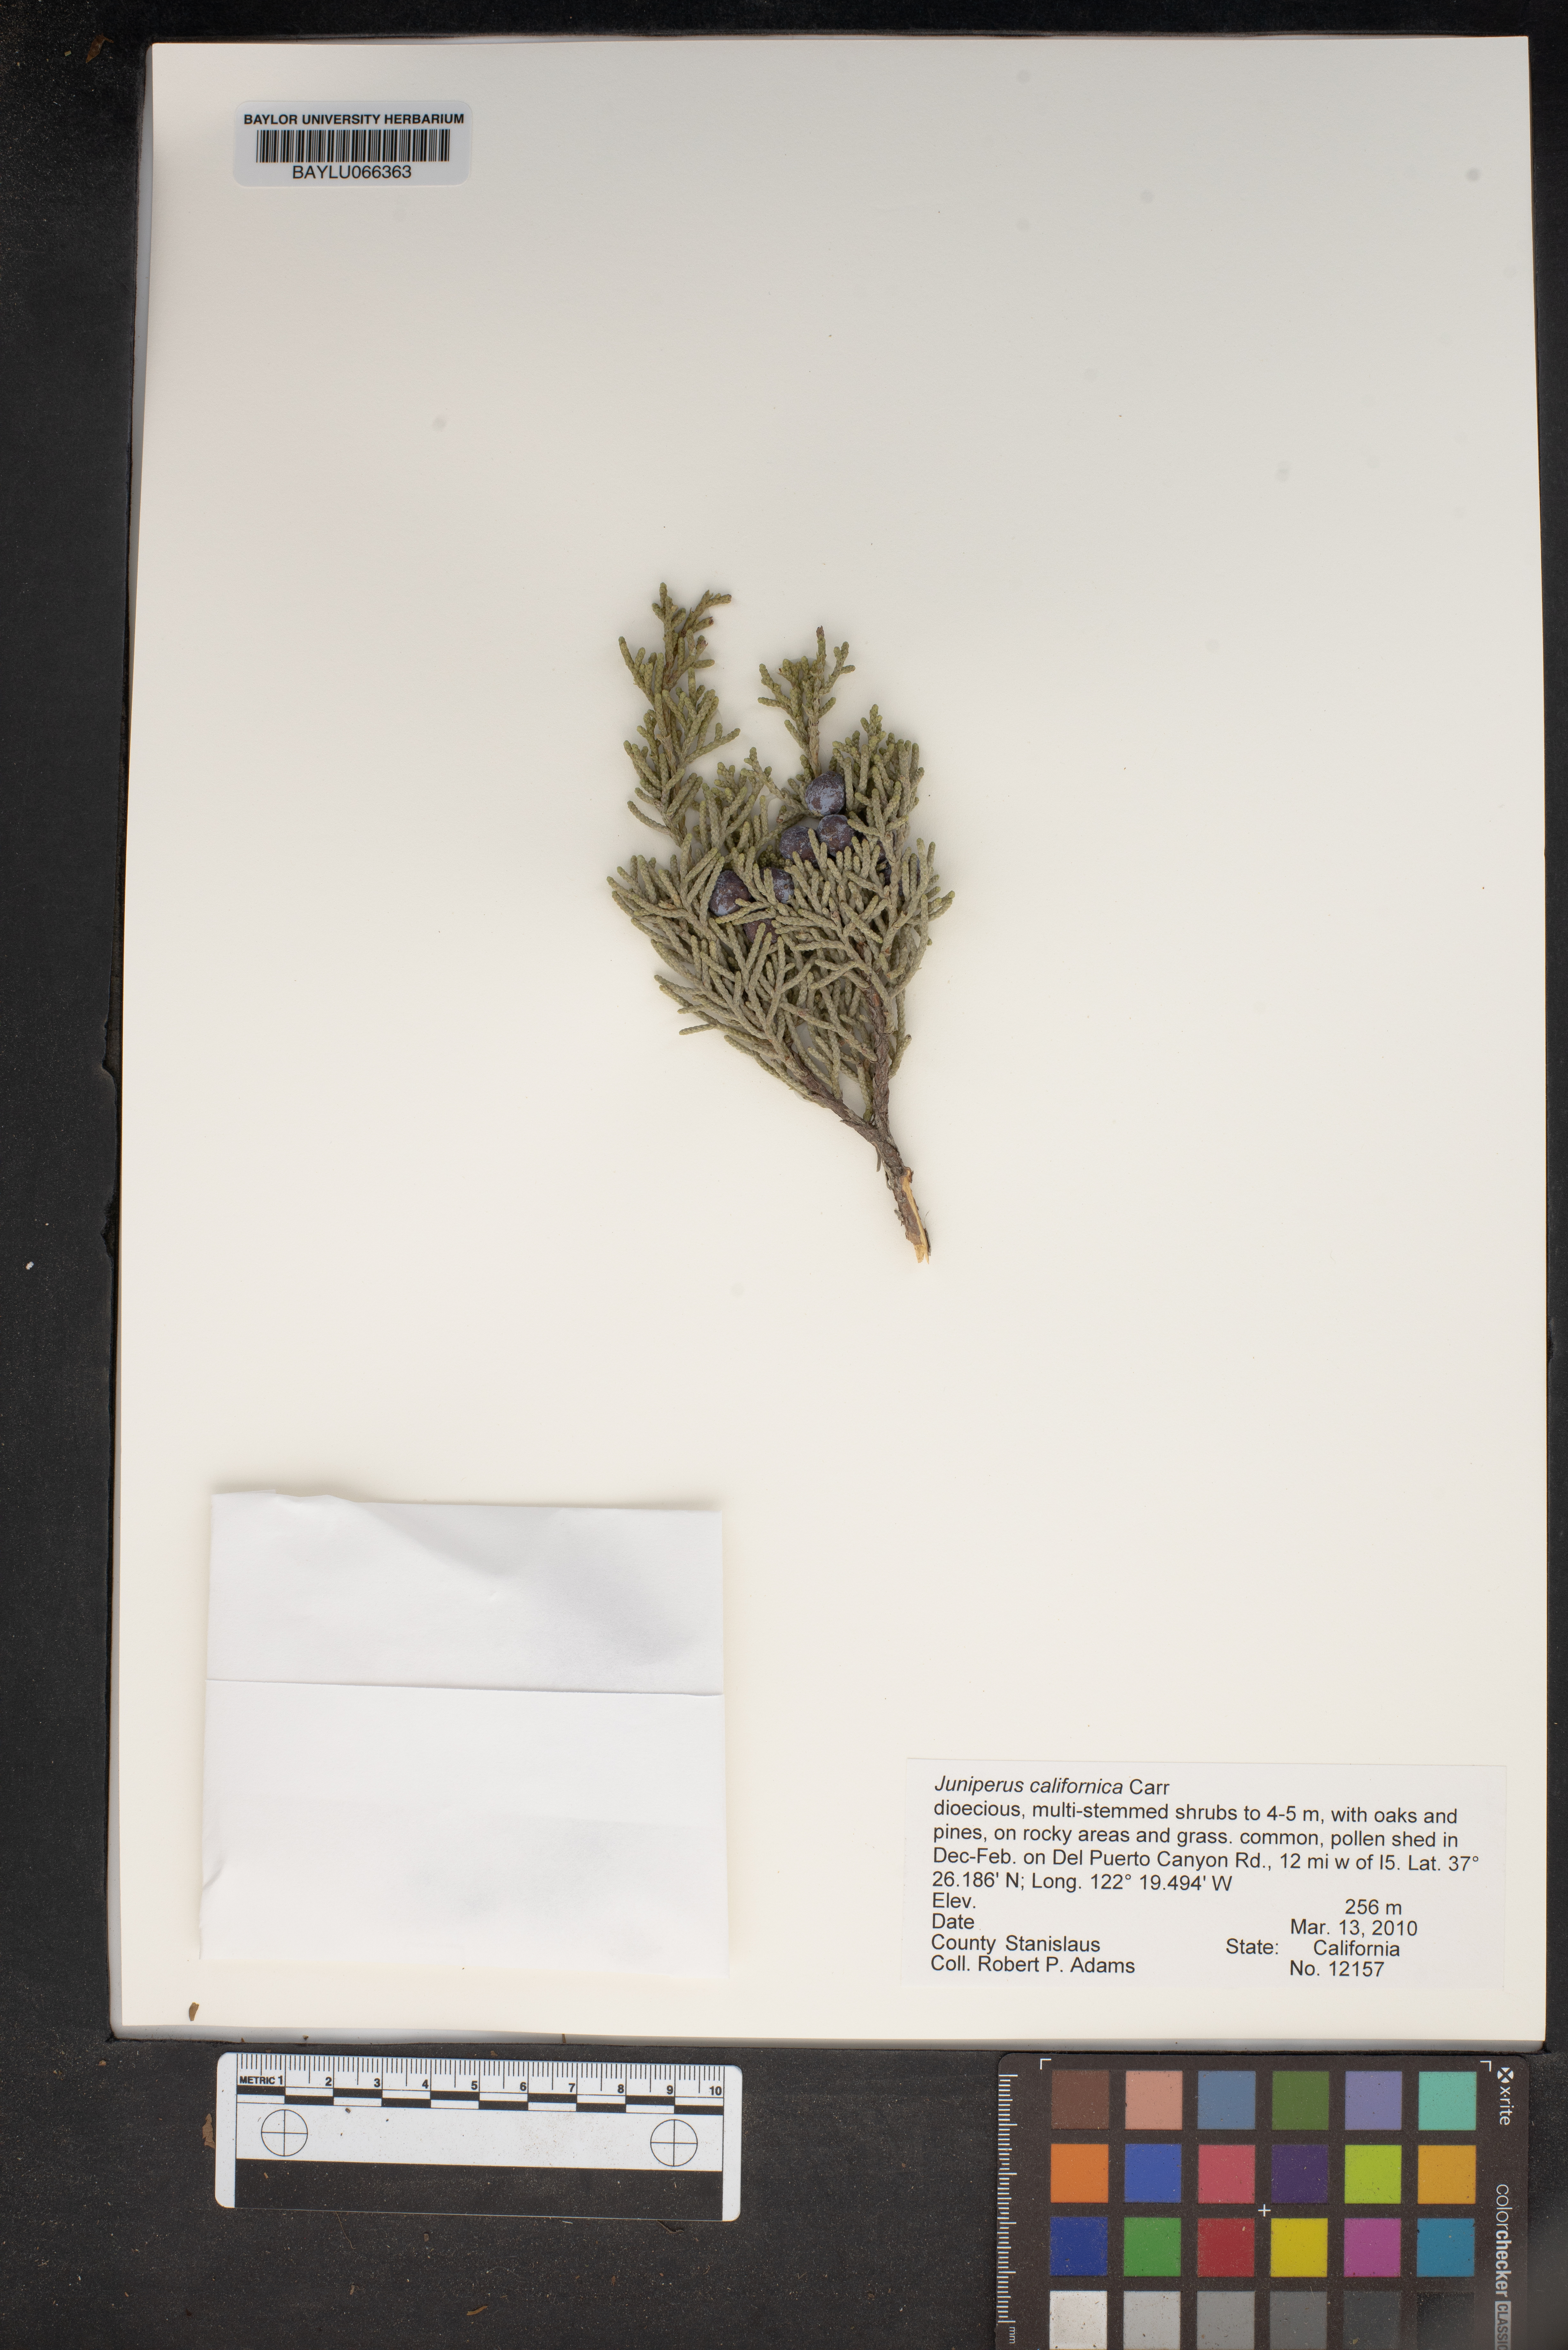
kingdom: Plantae
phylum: Tracheophyta
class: Pinopsida
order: Pinales
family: Cupressaceae
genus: Juniperus
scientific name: Juniperus californica
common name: California juniper
